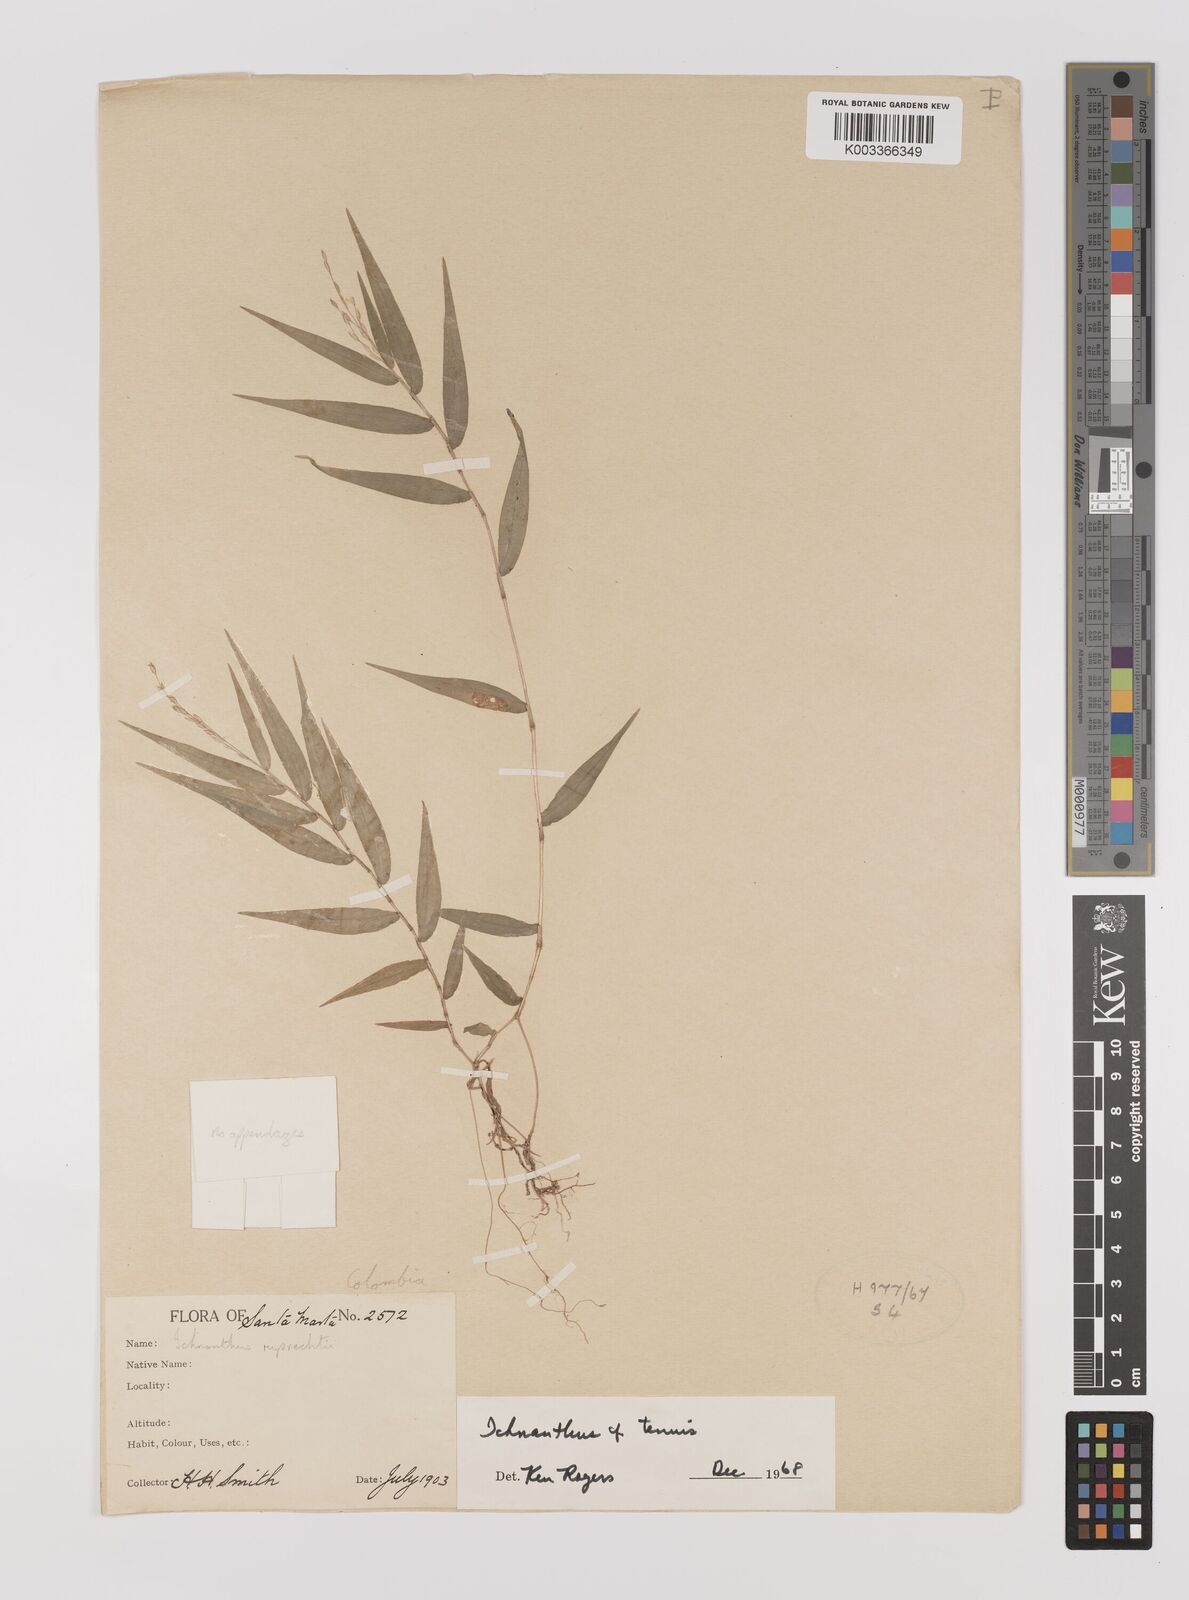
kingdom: Plantae
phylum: Tracheophyta
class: Liliopsida
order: Poales
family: Poaceae
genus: Ichnanthus
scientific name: Ichnanthus tenuis
